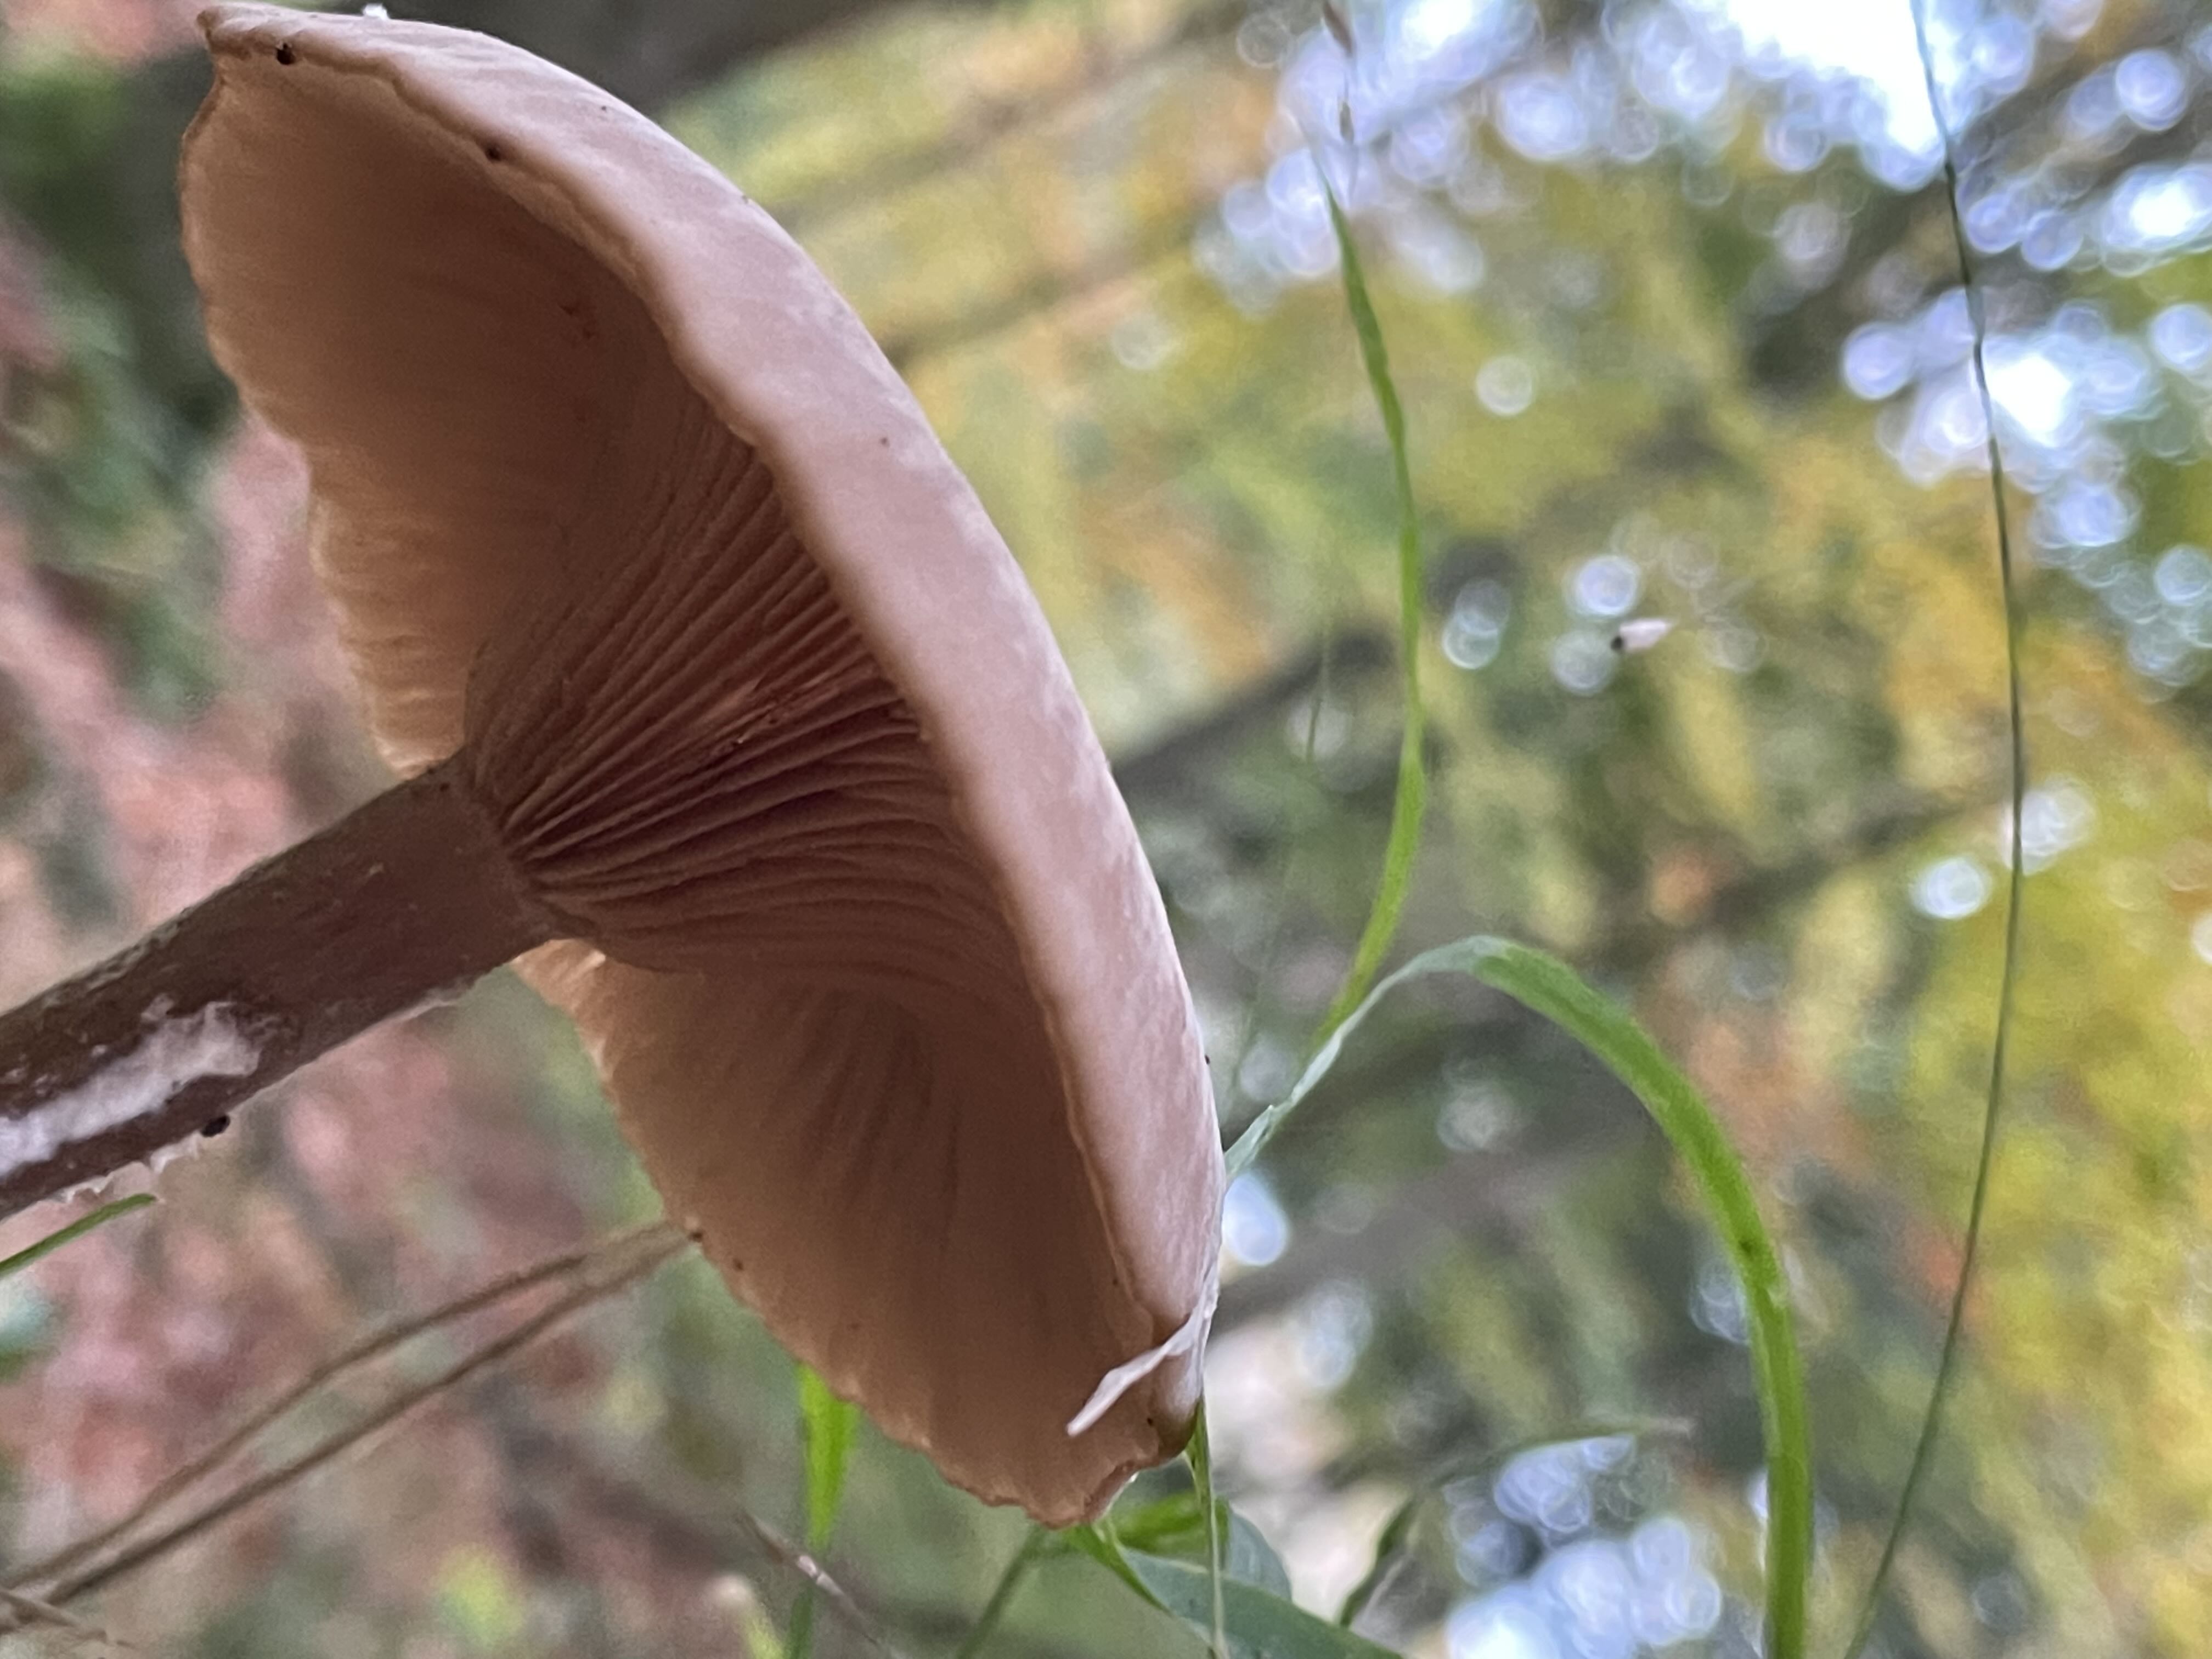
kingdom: Fungi
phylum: Basidiomycota
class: Agaricomycetes
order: Agaricales
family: Pseudoclitocybaceae
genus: Pseudoclitocybe
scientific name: Pseudoclitocybe cyathiformis
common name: almindelig bægertragthat
